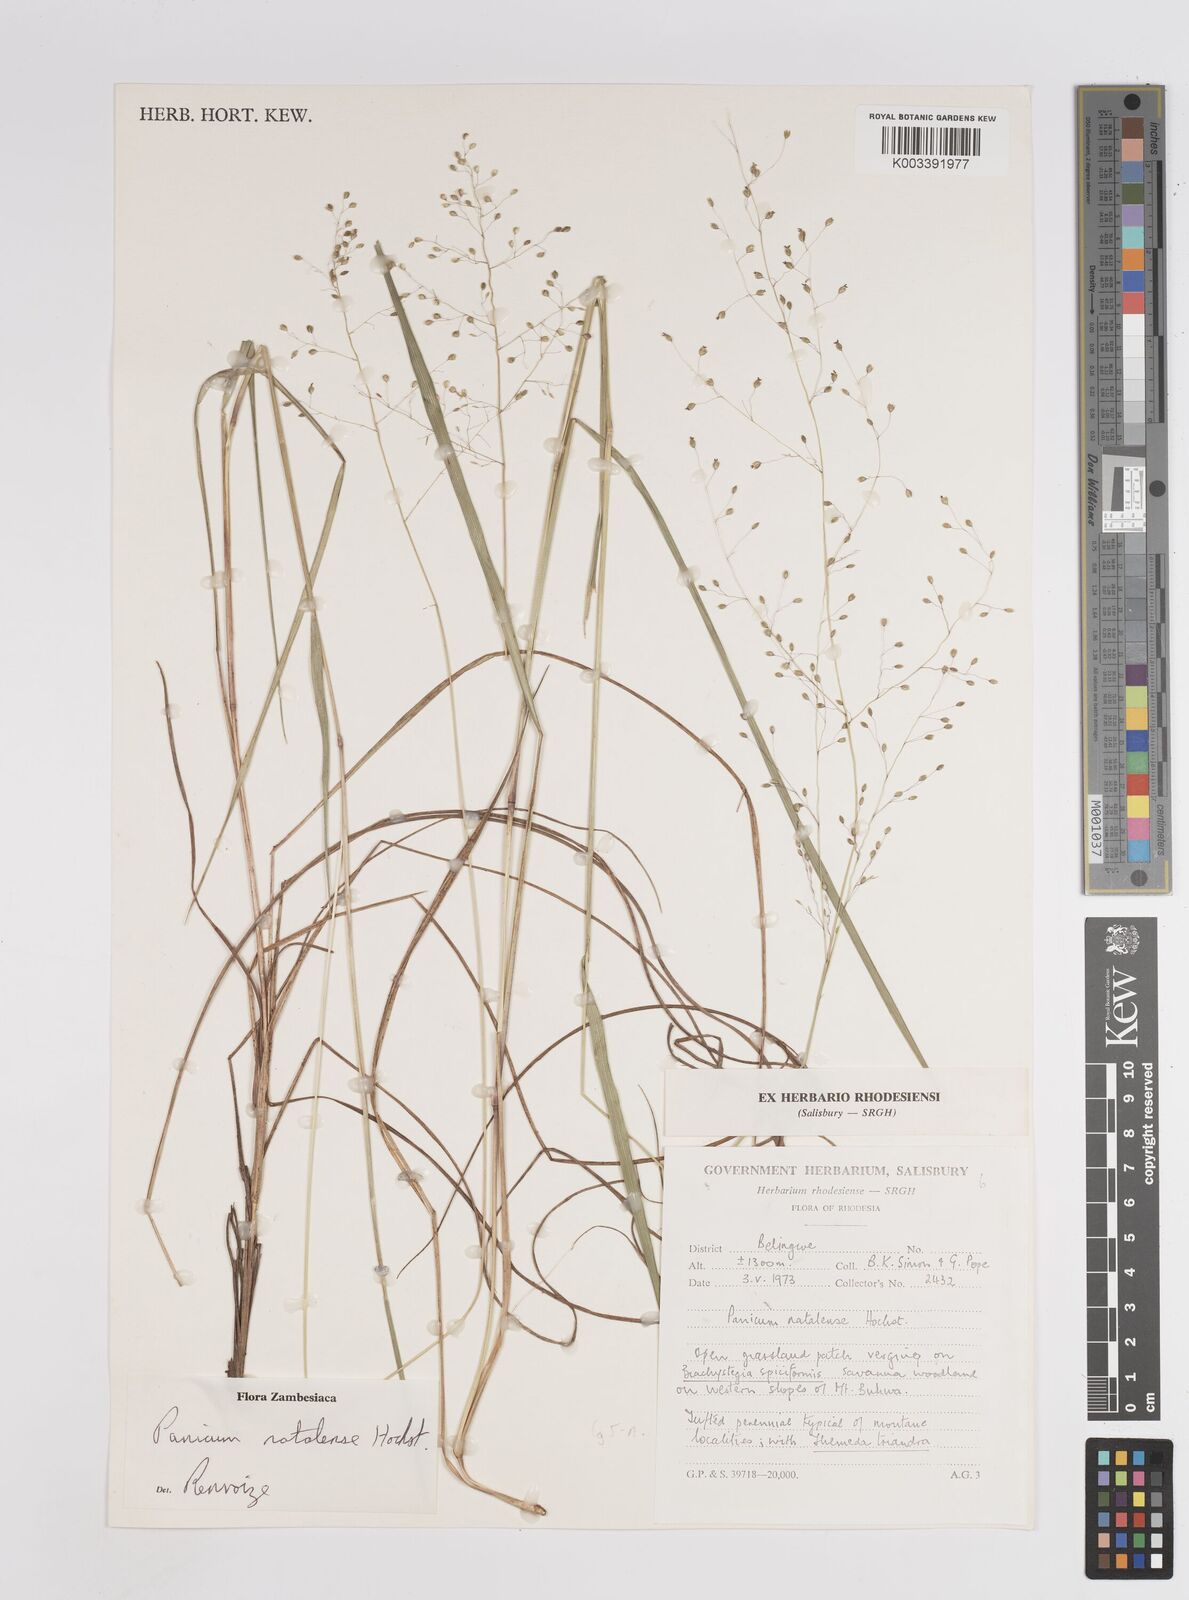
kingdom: Plantae
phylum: Tracheophyta
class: Liliopsida
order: Poales
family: Poaceae
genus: Trichanthecium
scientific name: Trichanthecium natalense
